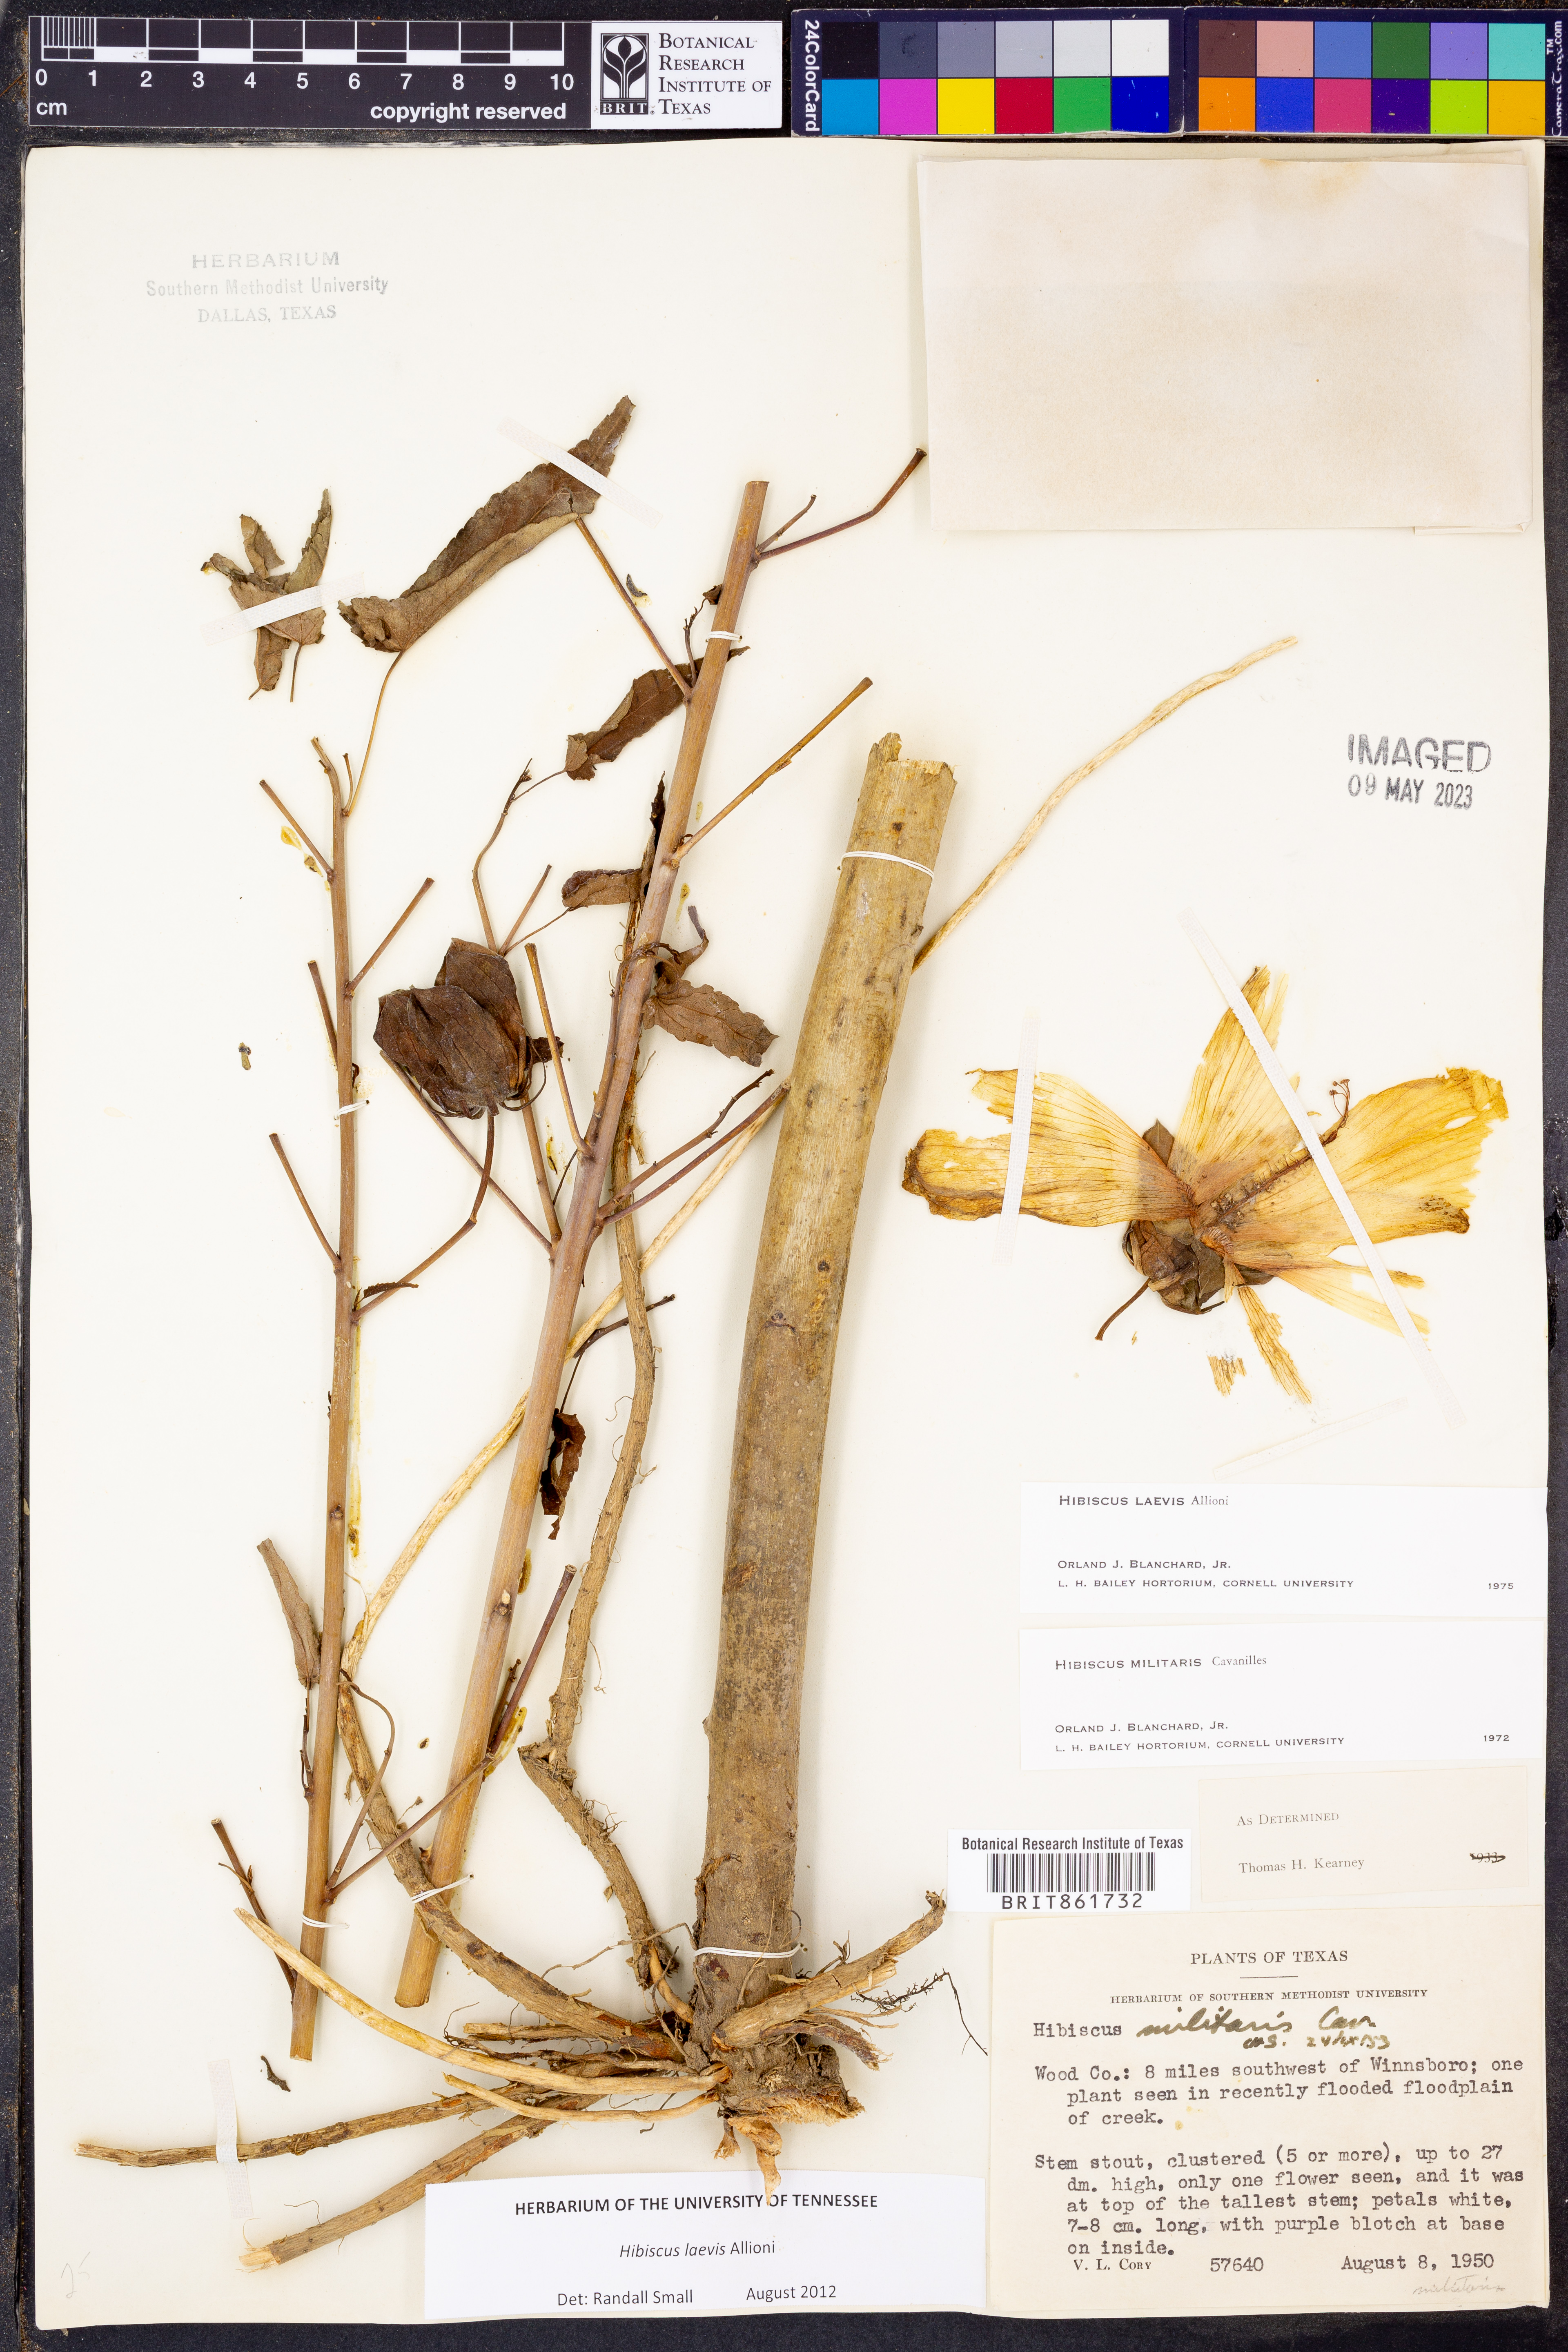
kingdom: Plantae
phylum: Tracheophyta
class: Magnoliopsida
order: Malvales
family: Malvaceae
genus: Hibiscus
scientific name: Hibiscus laevis
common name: Scarlet rose-mallow
